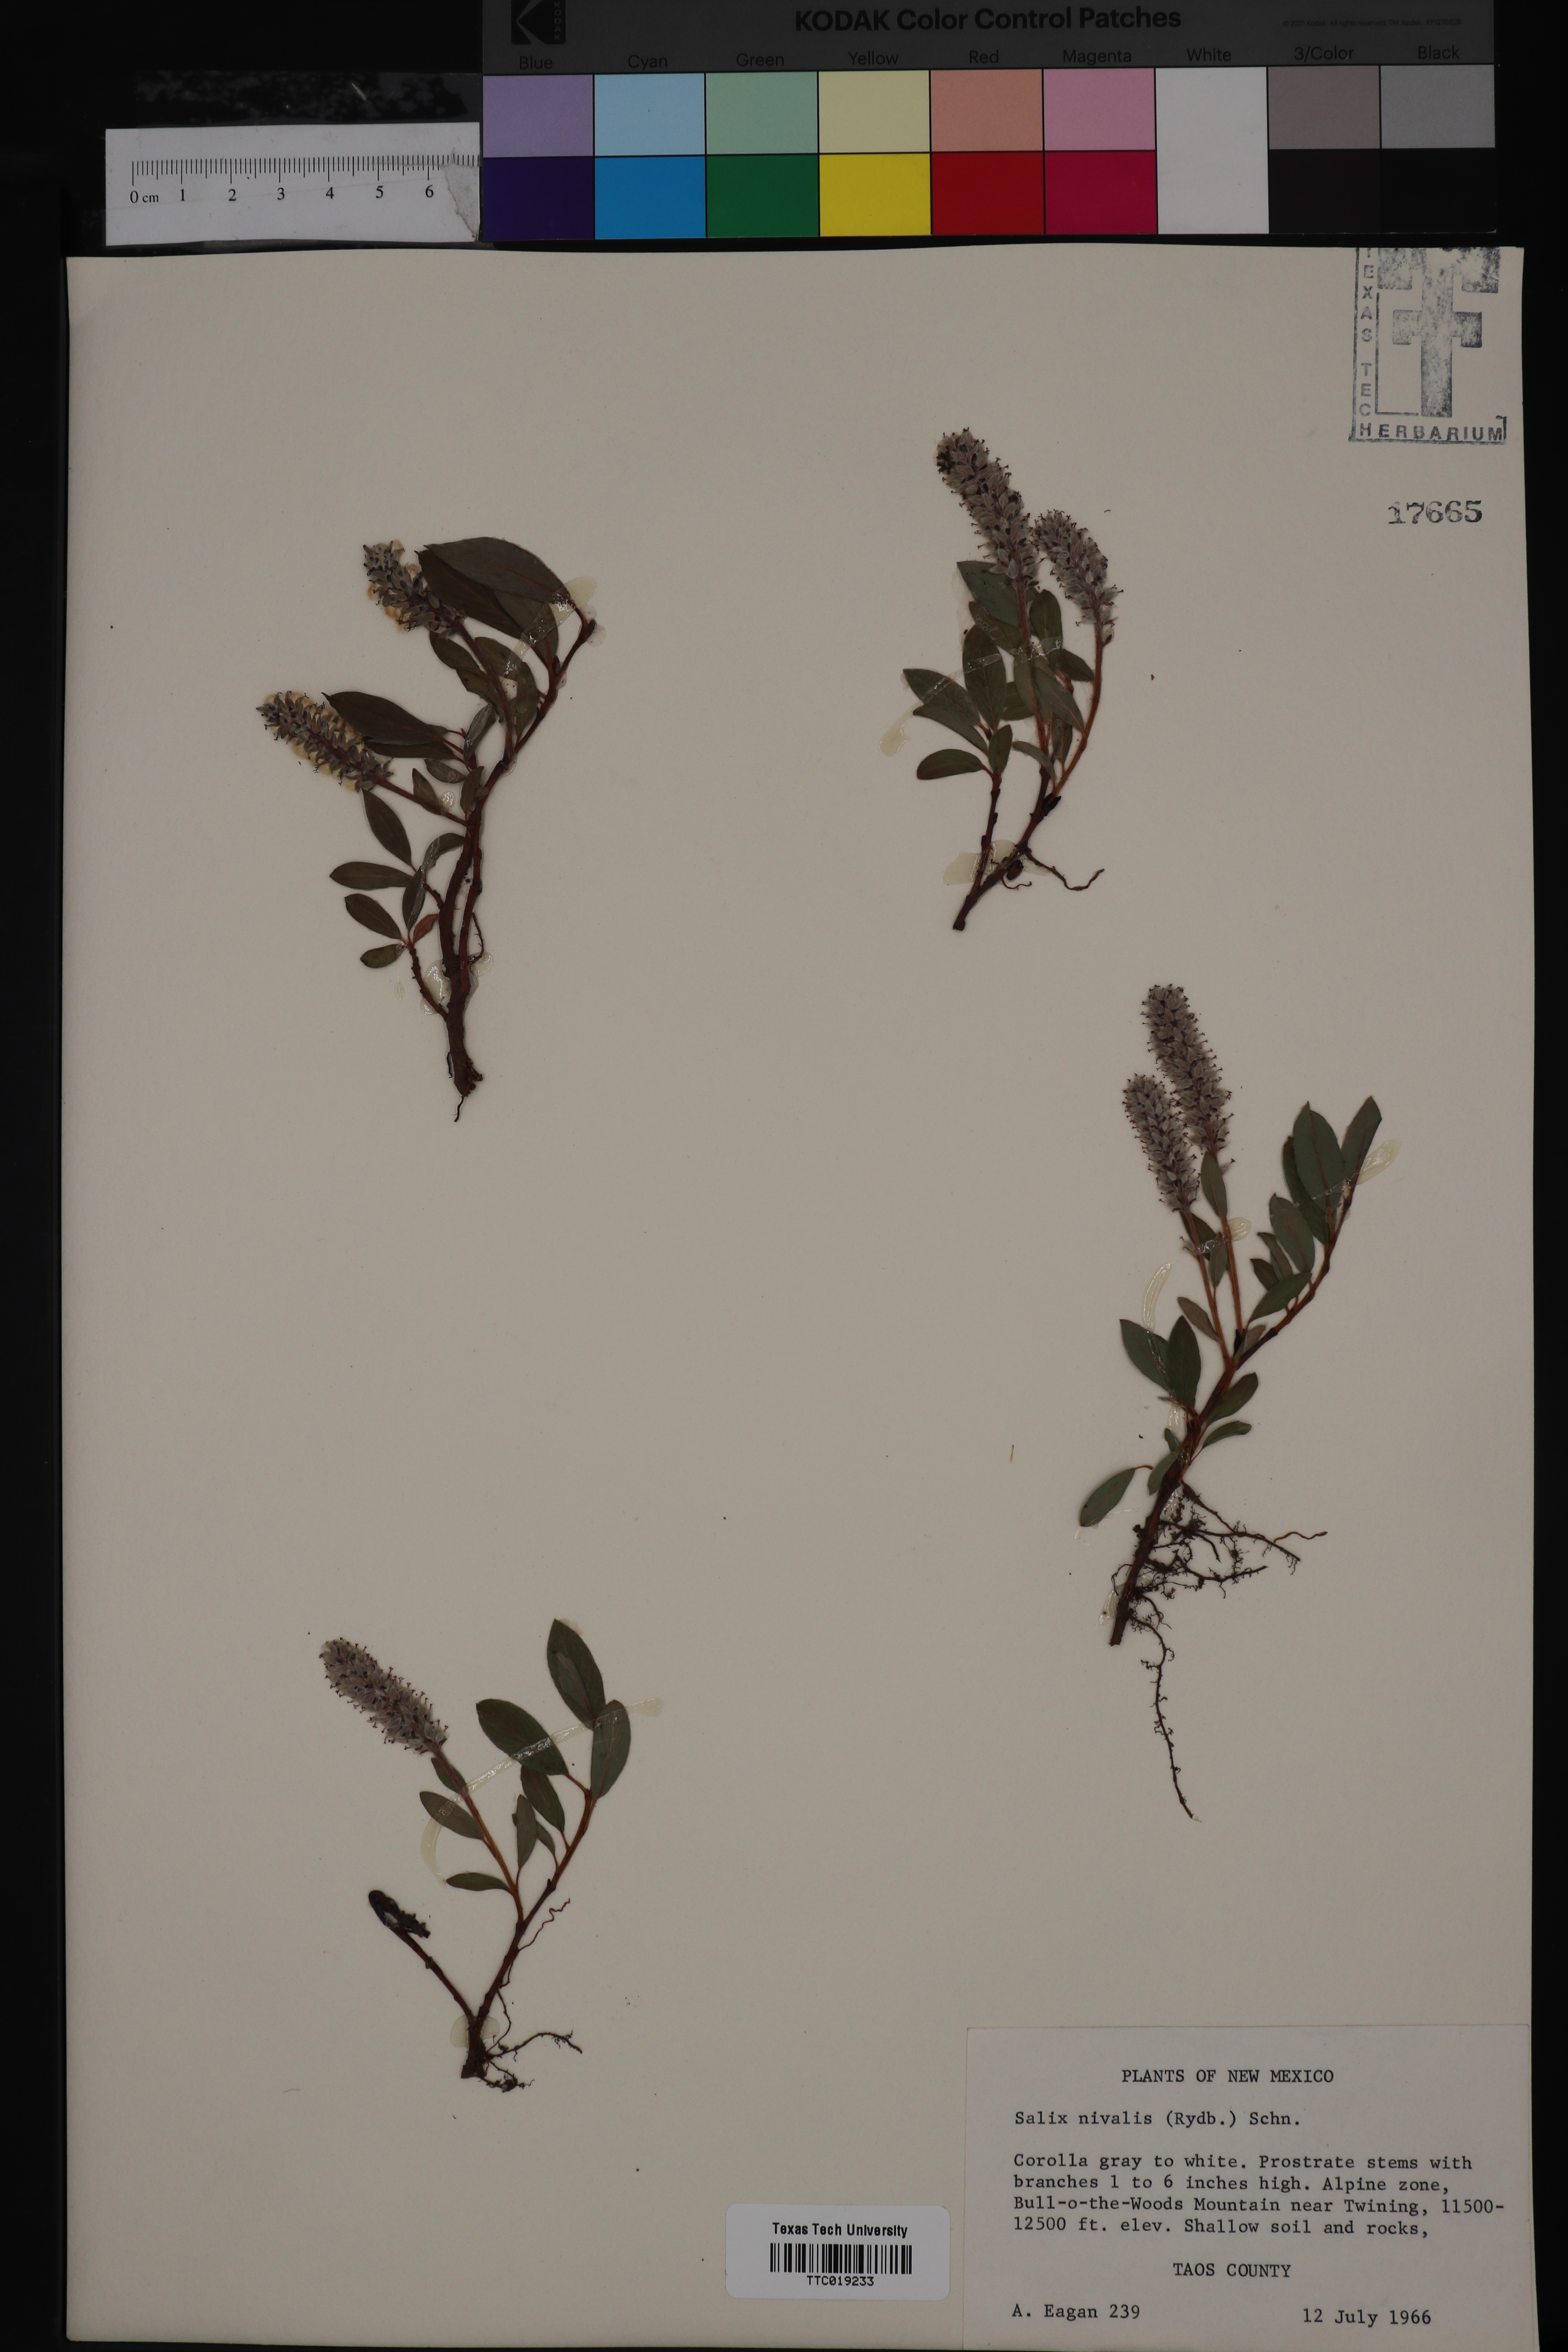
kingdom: Plantae
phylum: Tracheophyta
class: Magnoliopsida
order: Malpighiales
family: Salicaceae
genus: Salix
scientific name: Salix nivalis
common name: Dwarf snow willow
